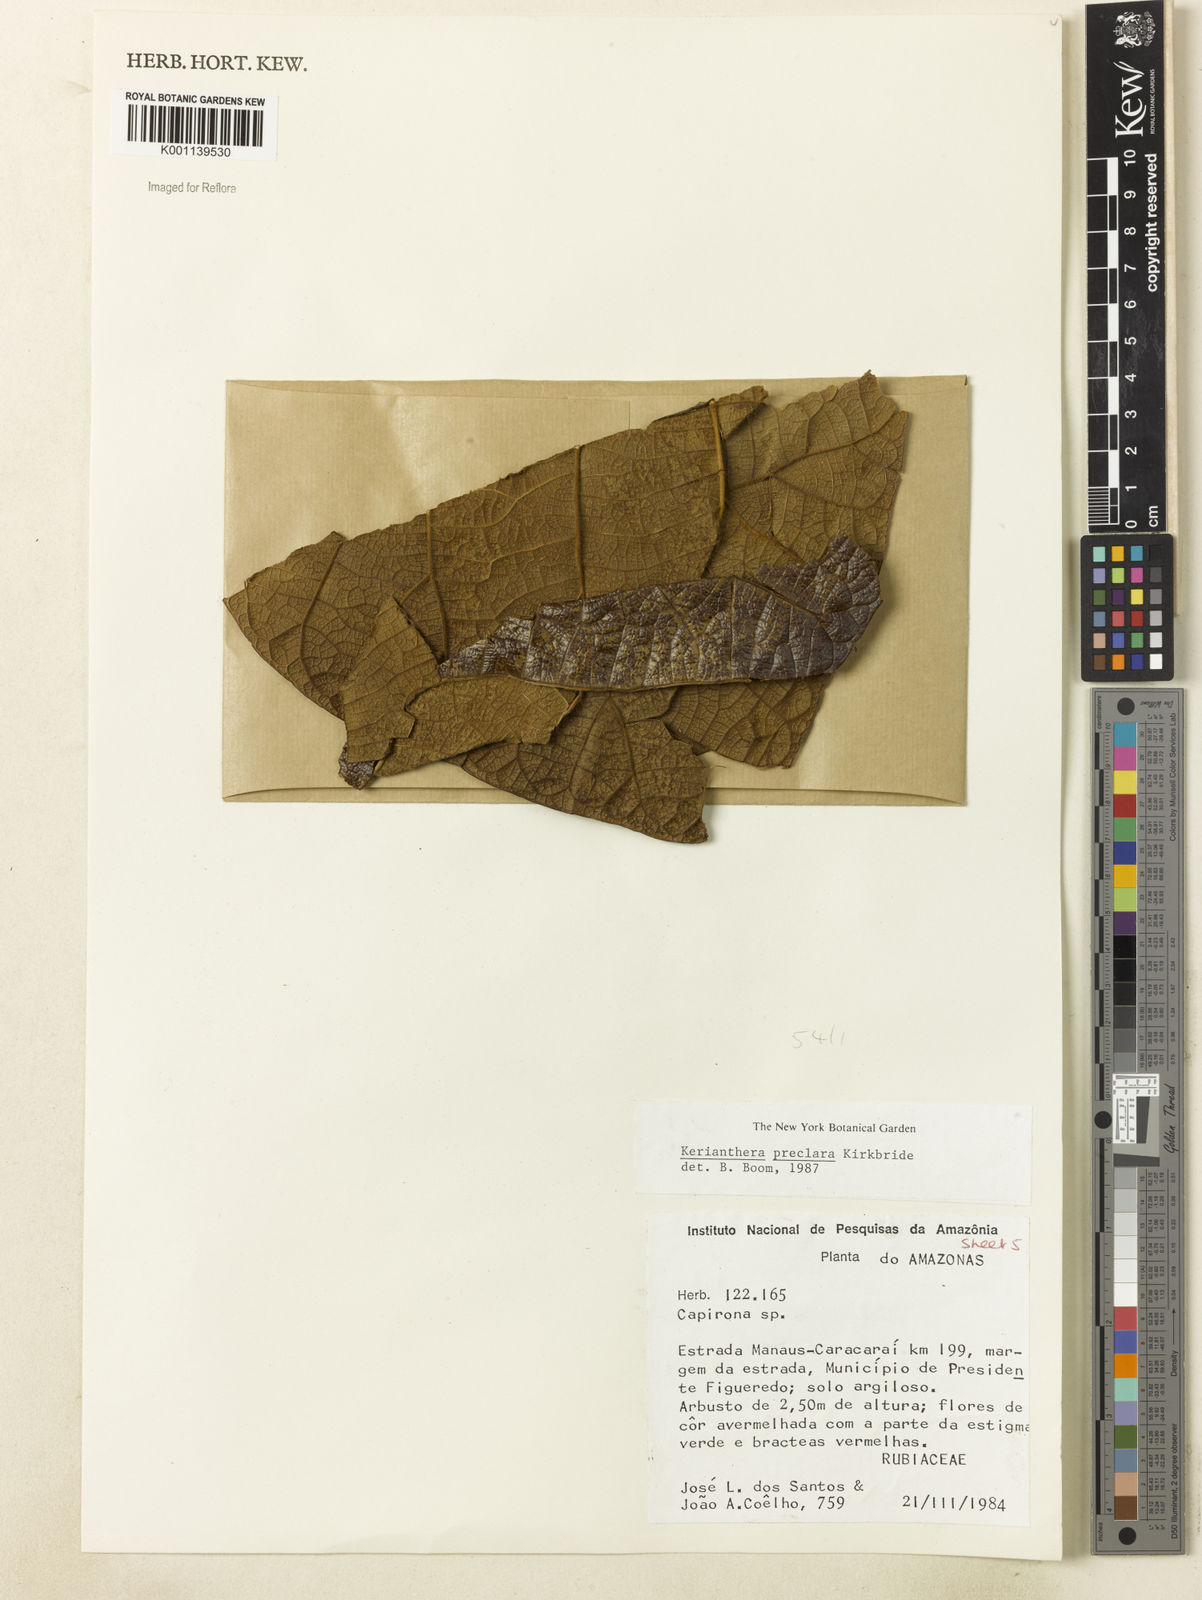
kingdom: Plantae
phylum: Tracheophyta
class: Magnoliopsida
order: Gentianales
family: Rubiaceae
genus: Kerianthera
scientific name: Kerianthera preclara
